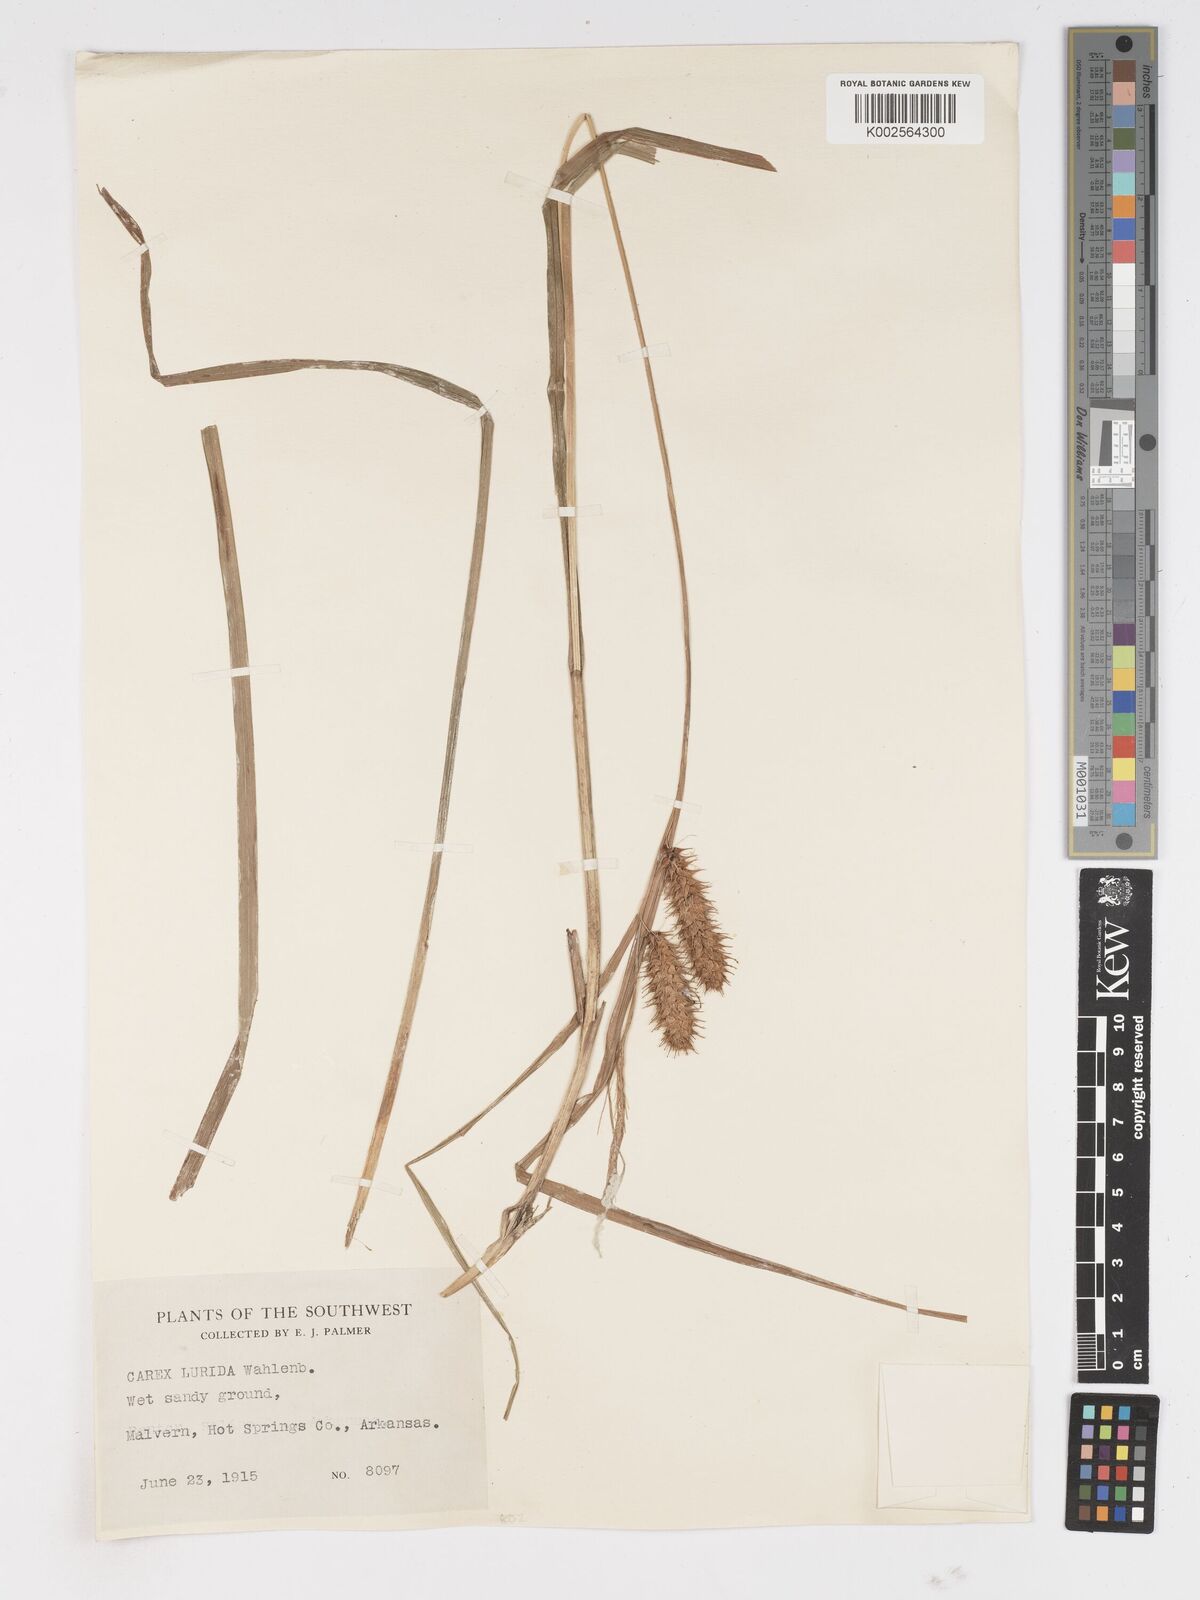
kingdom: Plantae
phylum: Tracheophyta
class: Liliopsida
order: Poales
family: Cyperaceae
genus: Carex
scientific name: Carex lurida
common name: Sallow sedge
